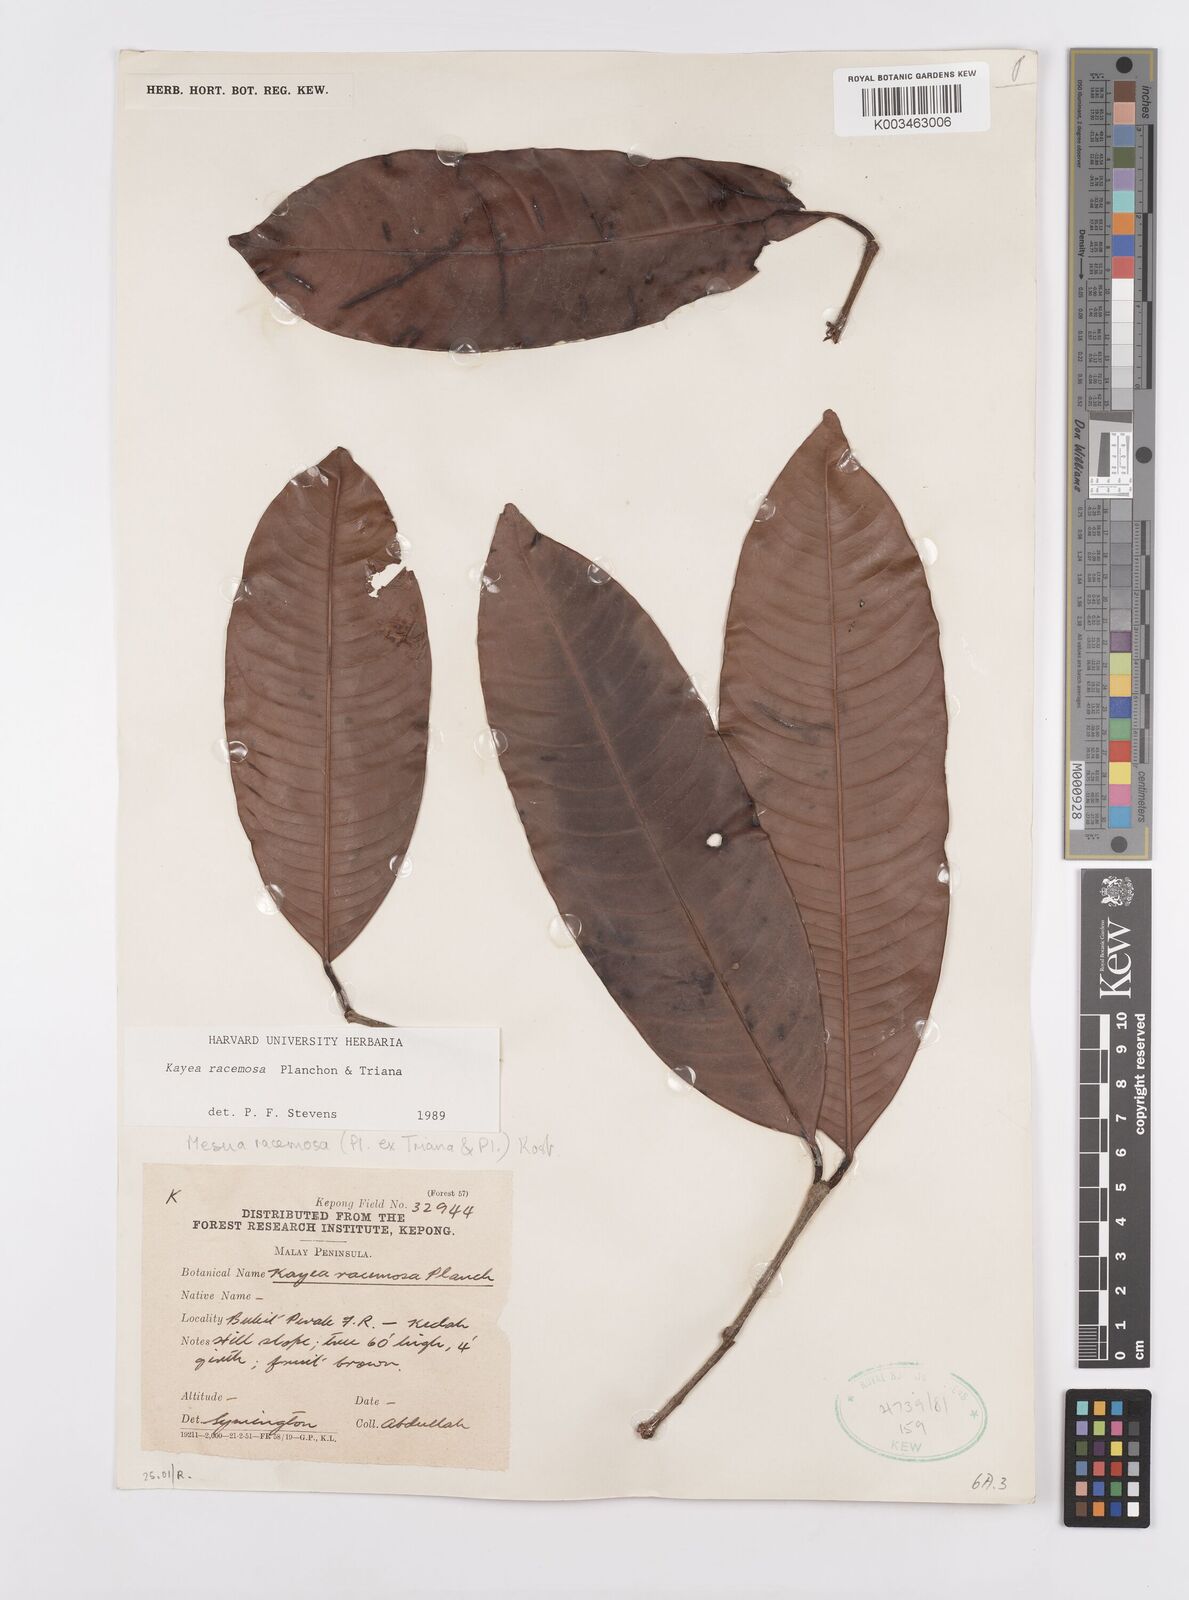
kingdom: Plantae
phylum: Tracheophyta
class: Magnoliopsida
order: Malpighiales
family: Calophyllaceae
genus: Kayea
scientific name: Kayea racemosa
